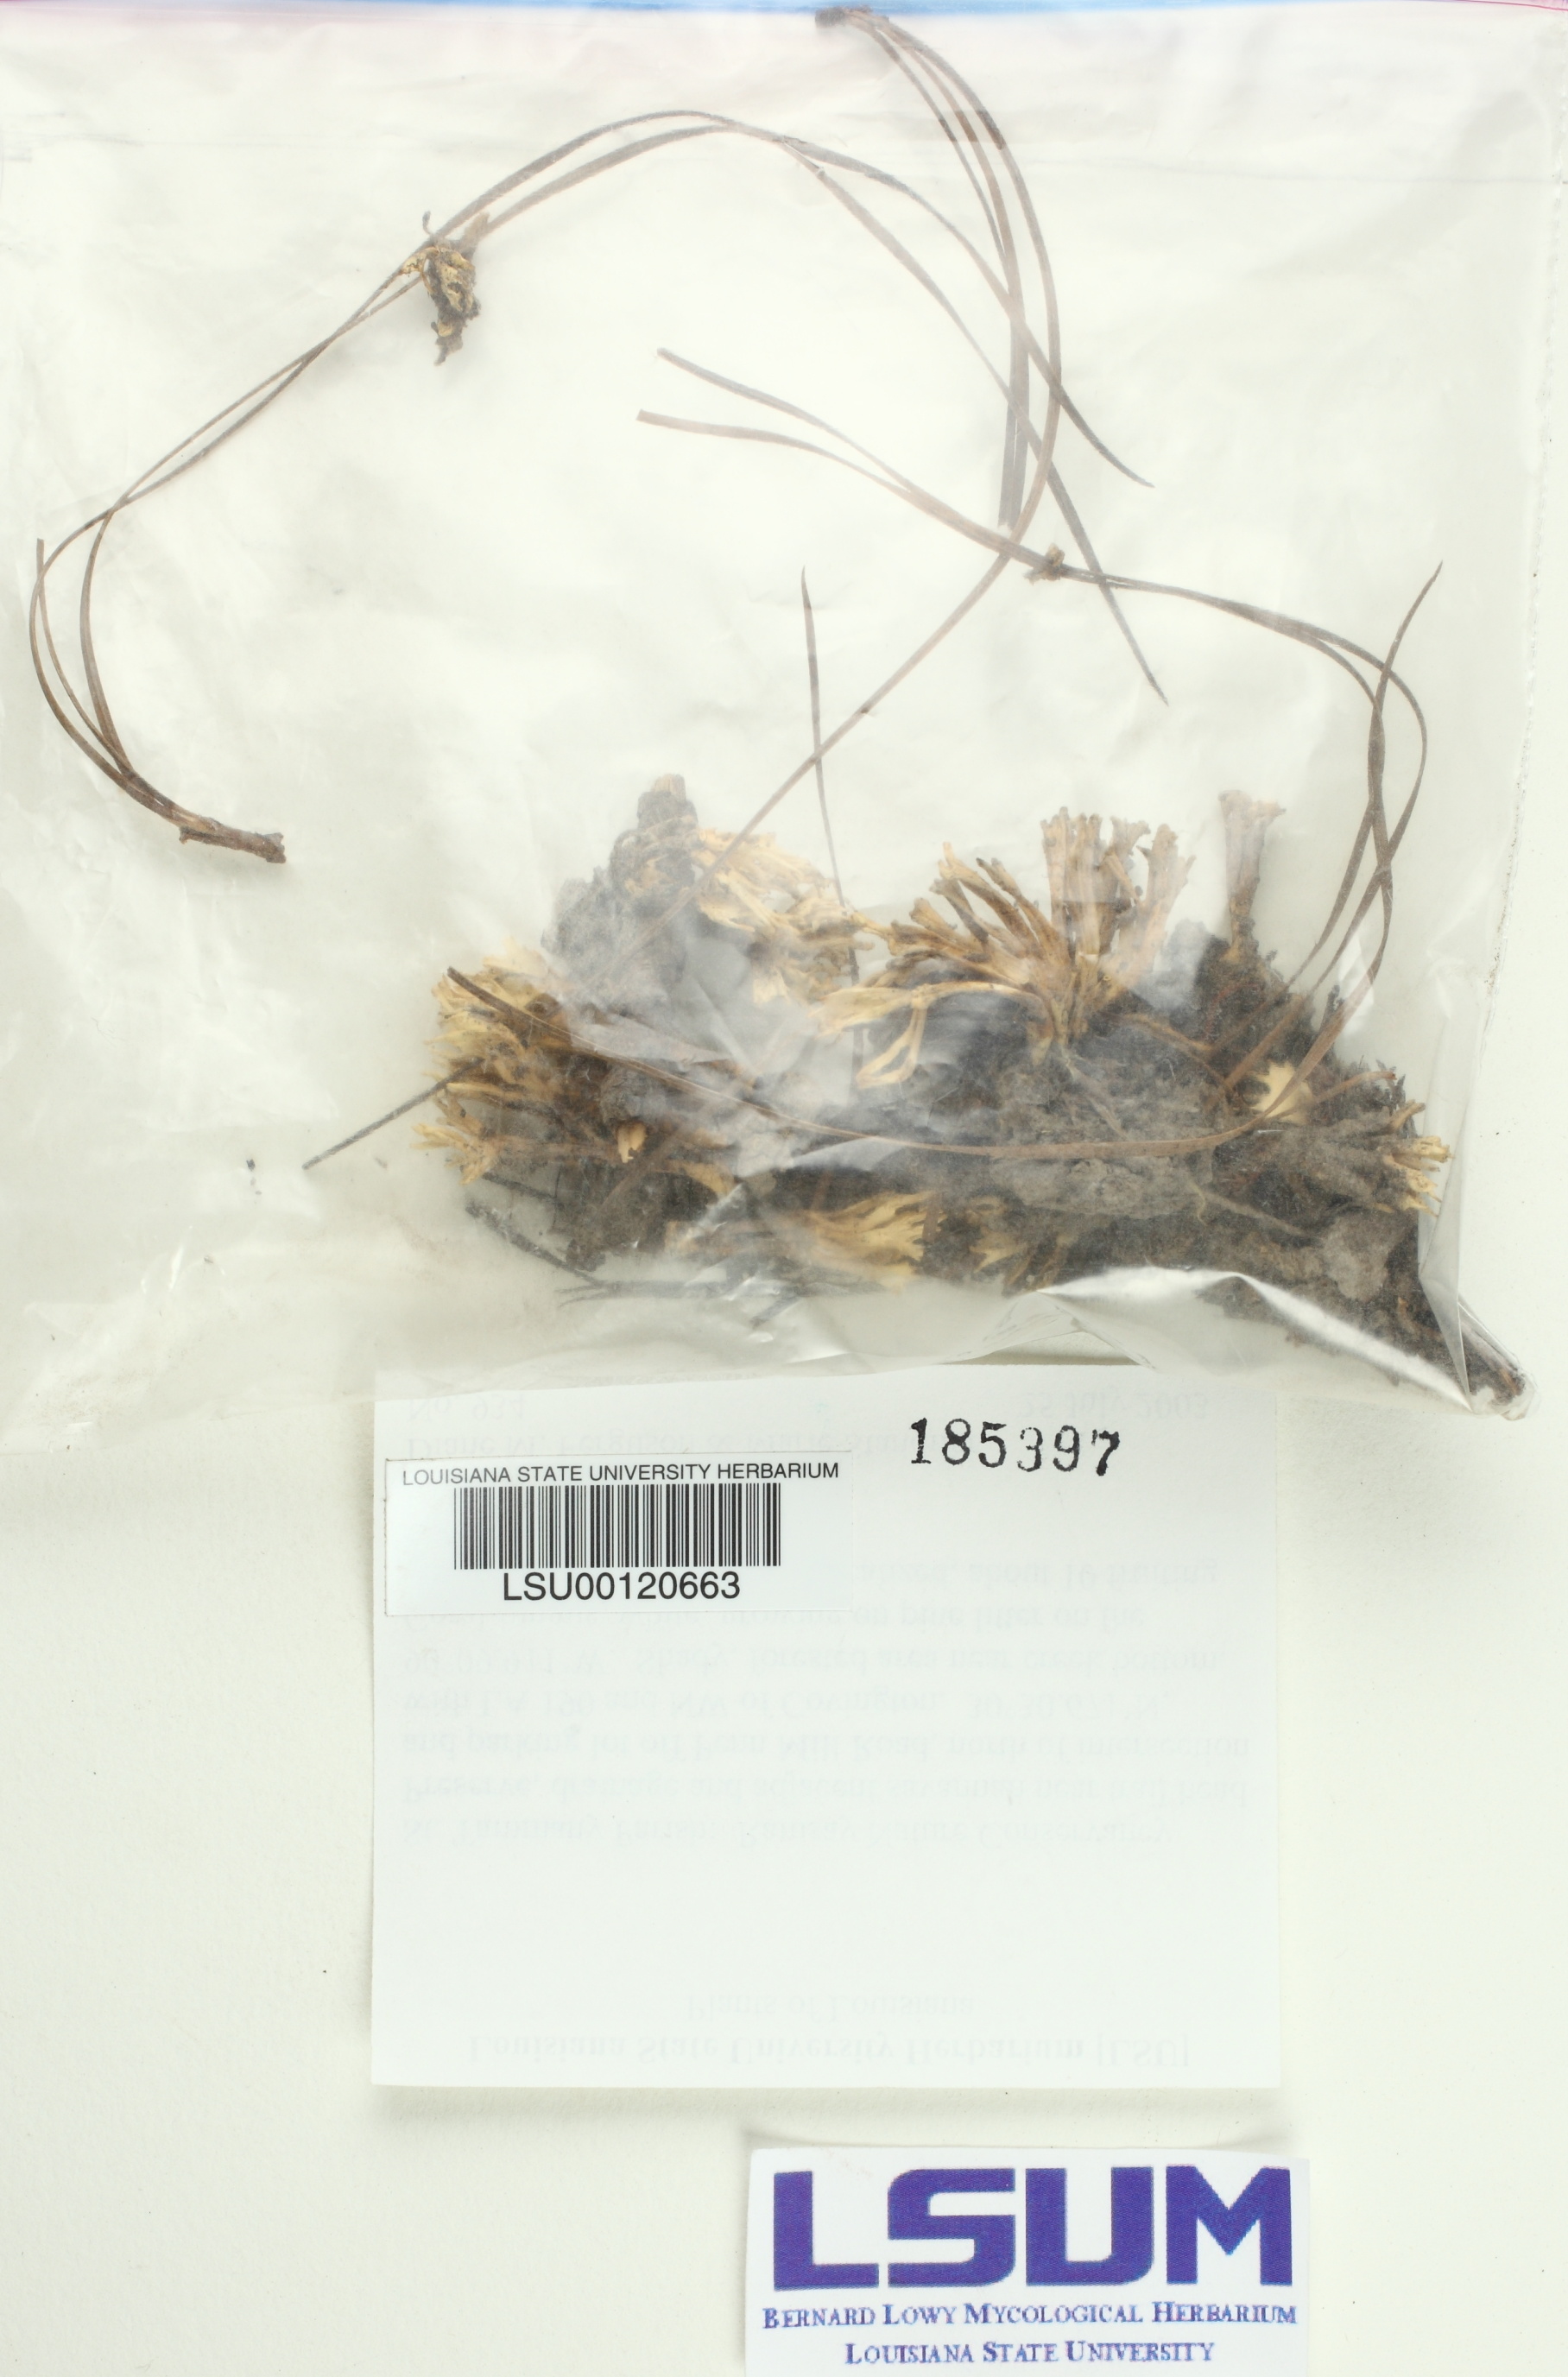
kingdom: Fungi
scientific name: Fungi
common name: Fungi
